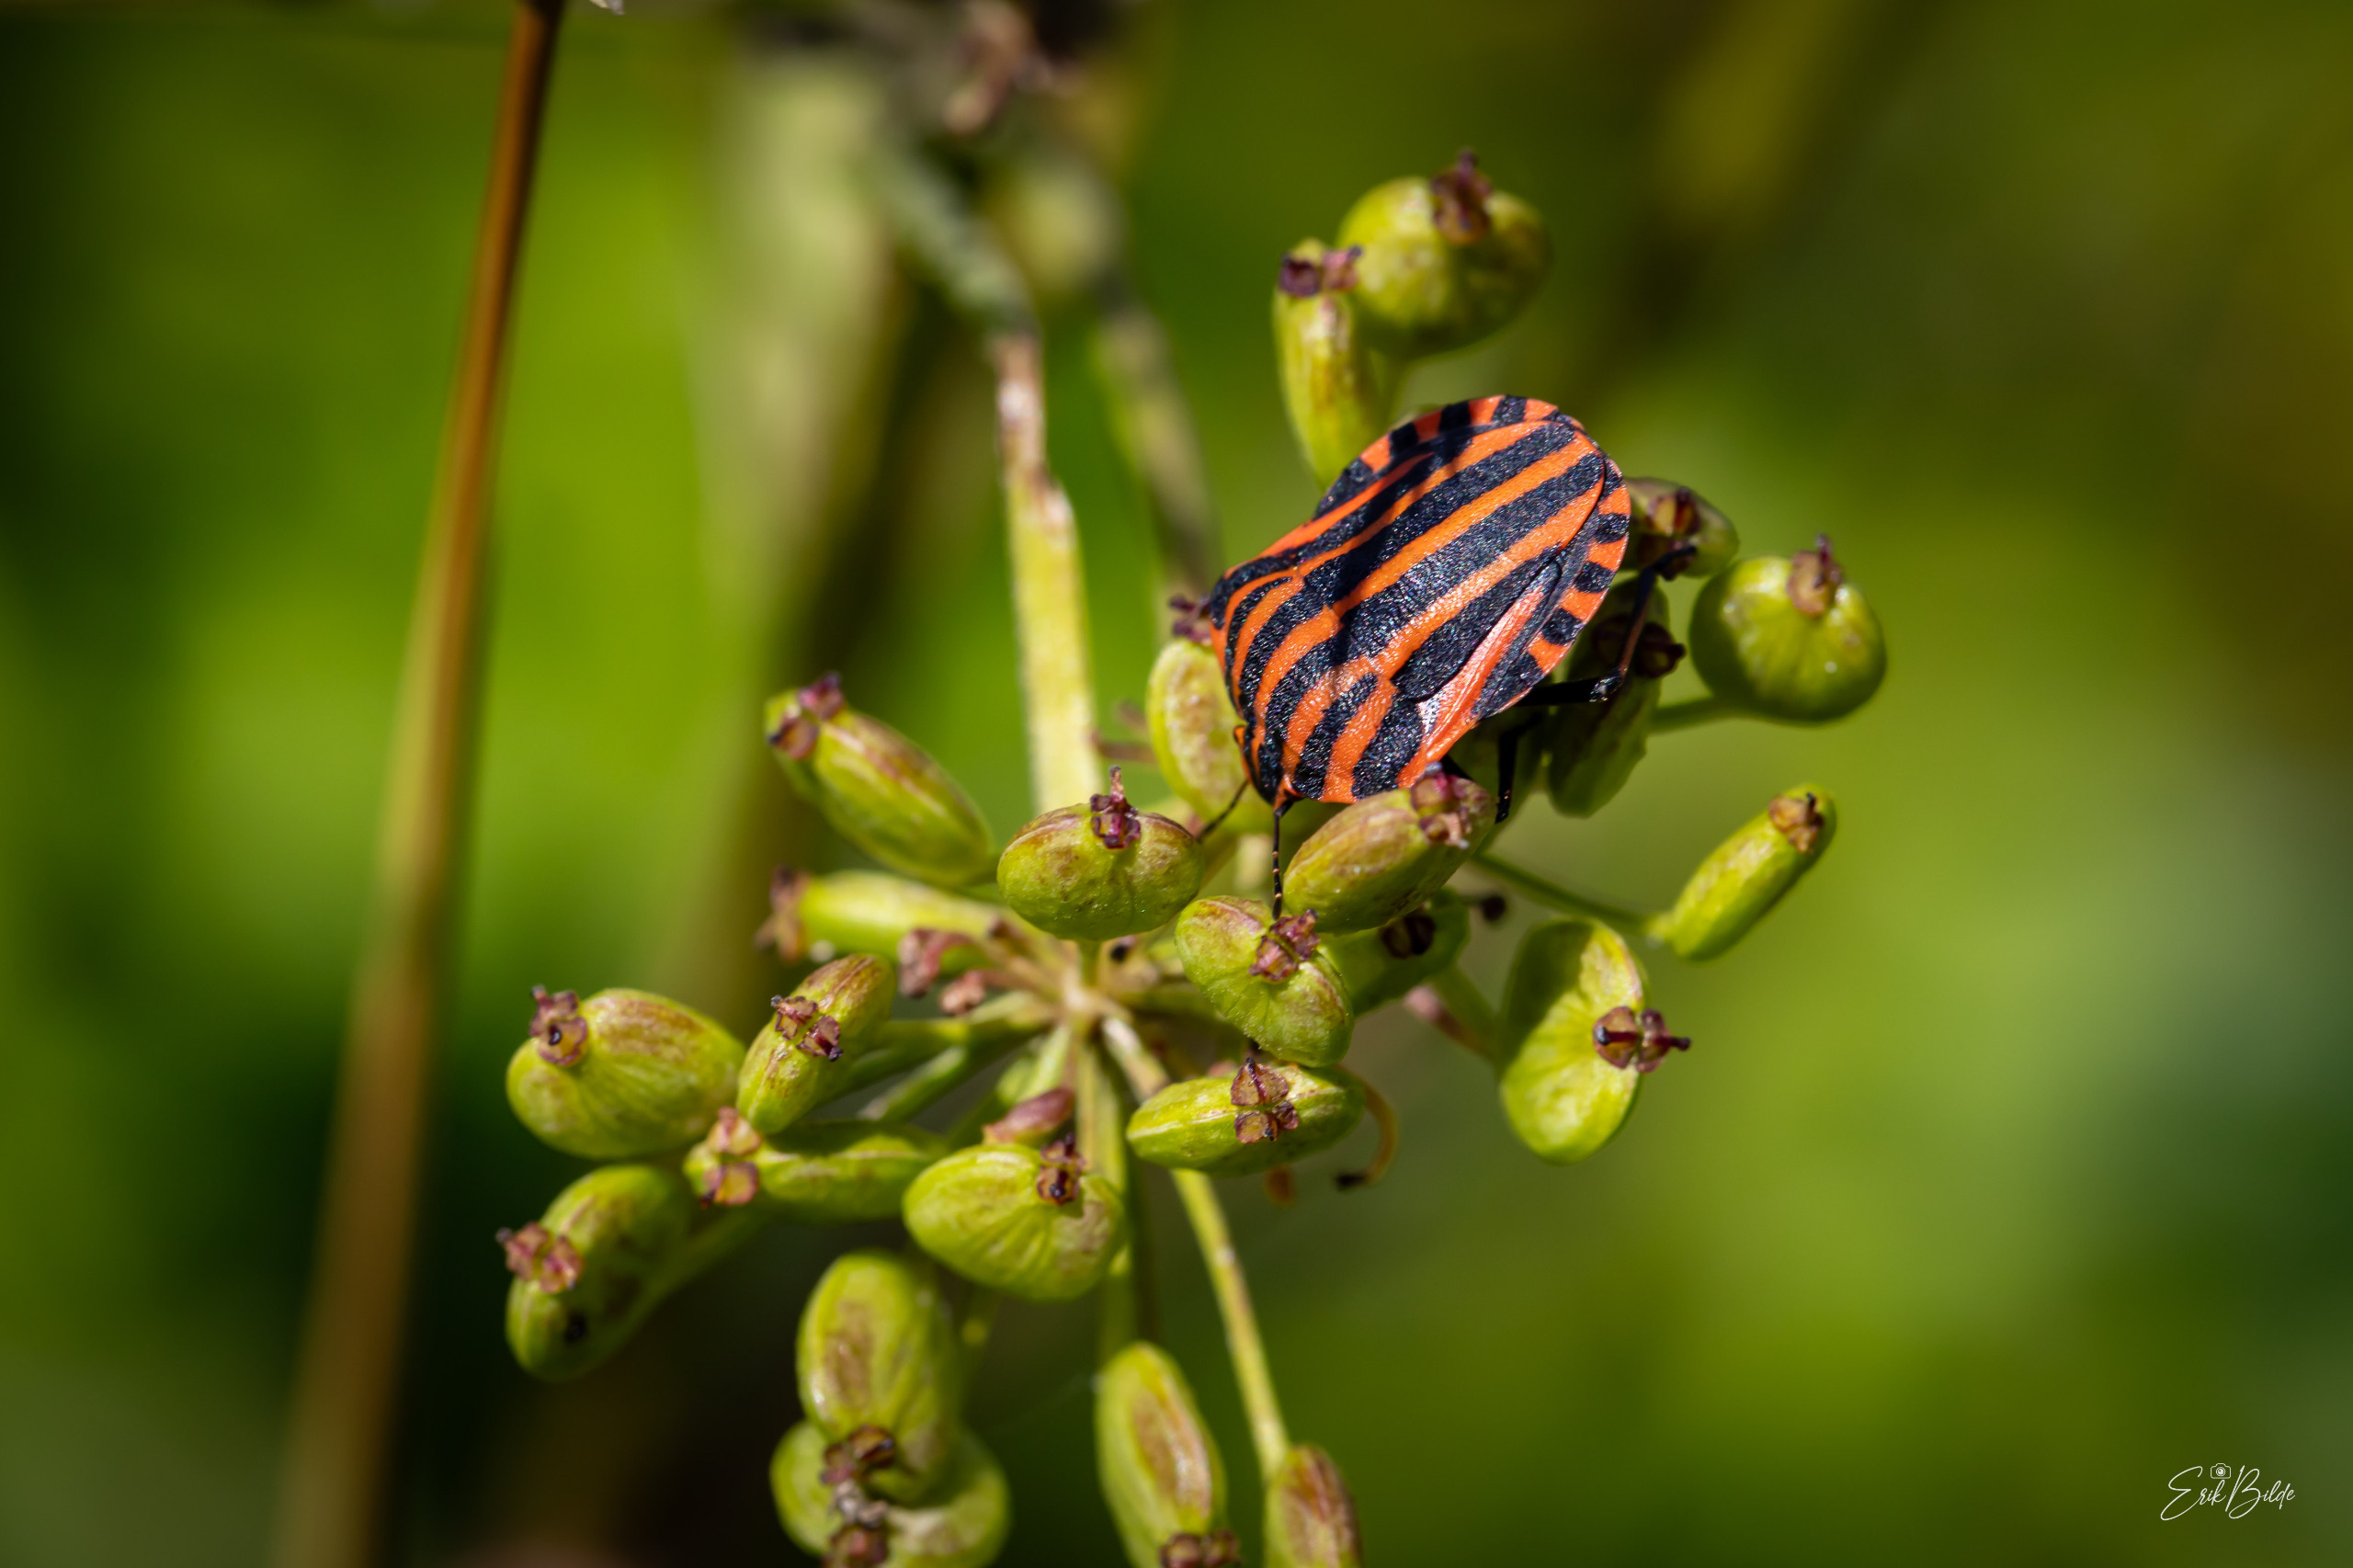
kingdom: Animalia
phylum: Arthropoda
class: Insecta
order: Hemiptera
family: Pentatomidae
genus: Graphosoma
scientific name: Graphosoma italicum
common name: Stribetæge
